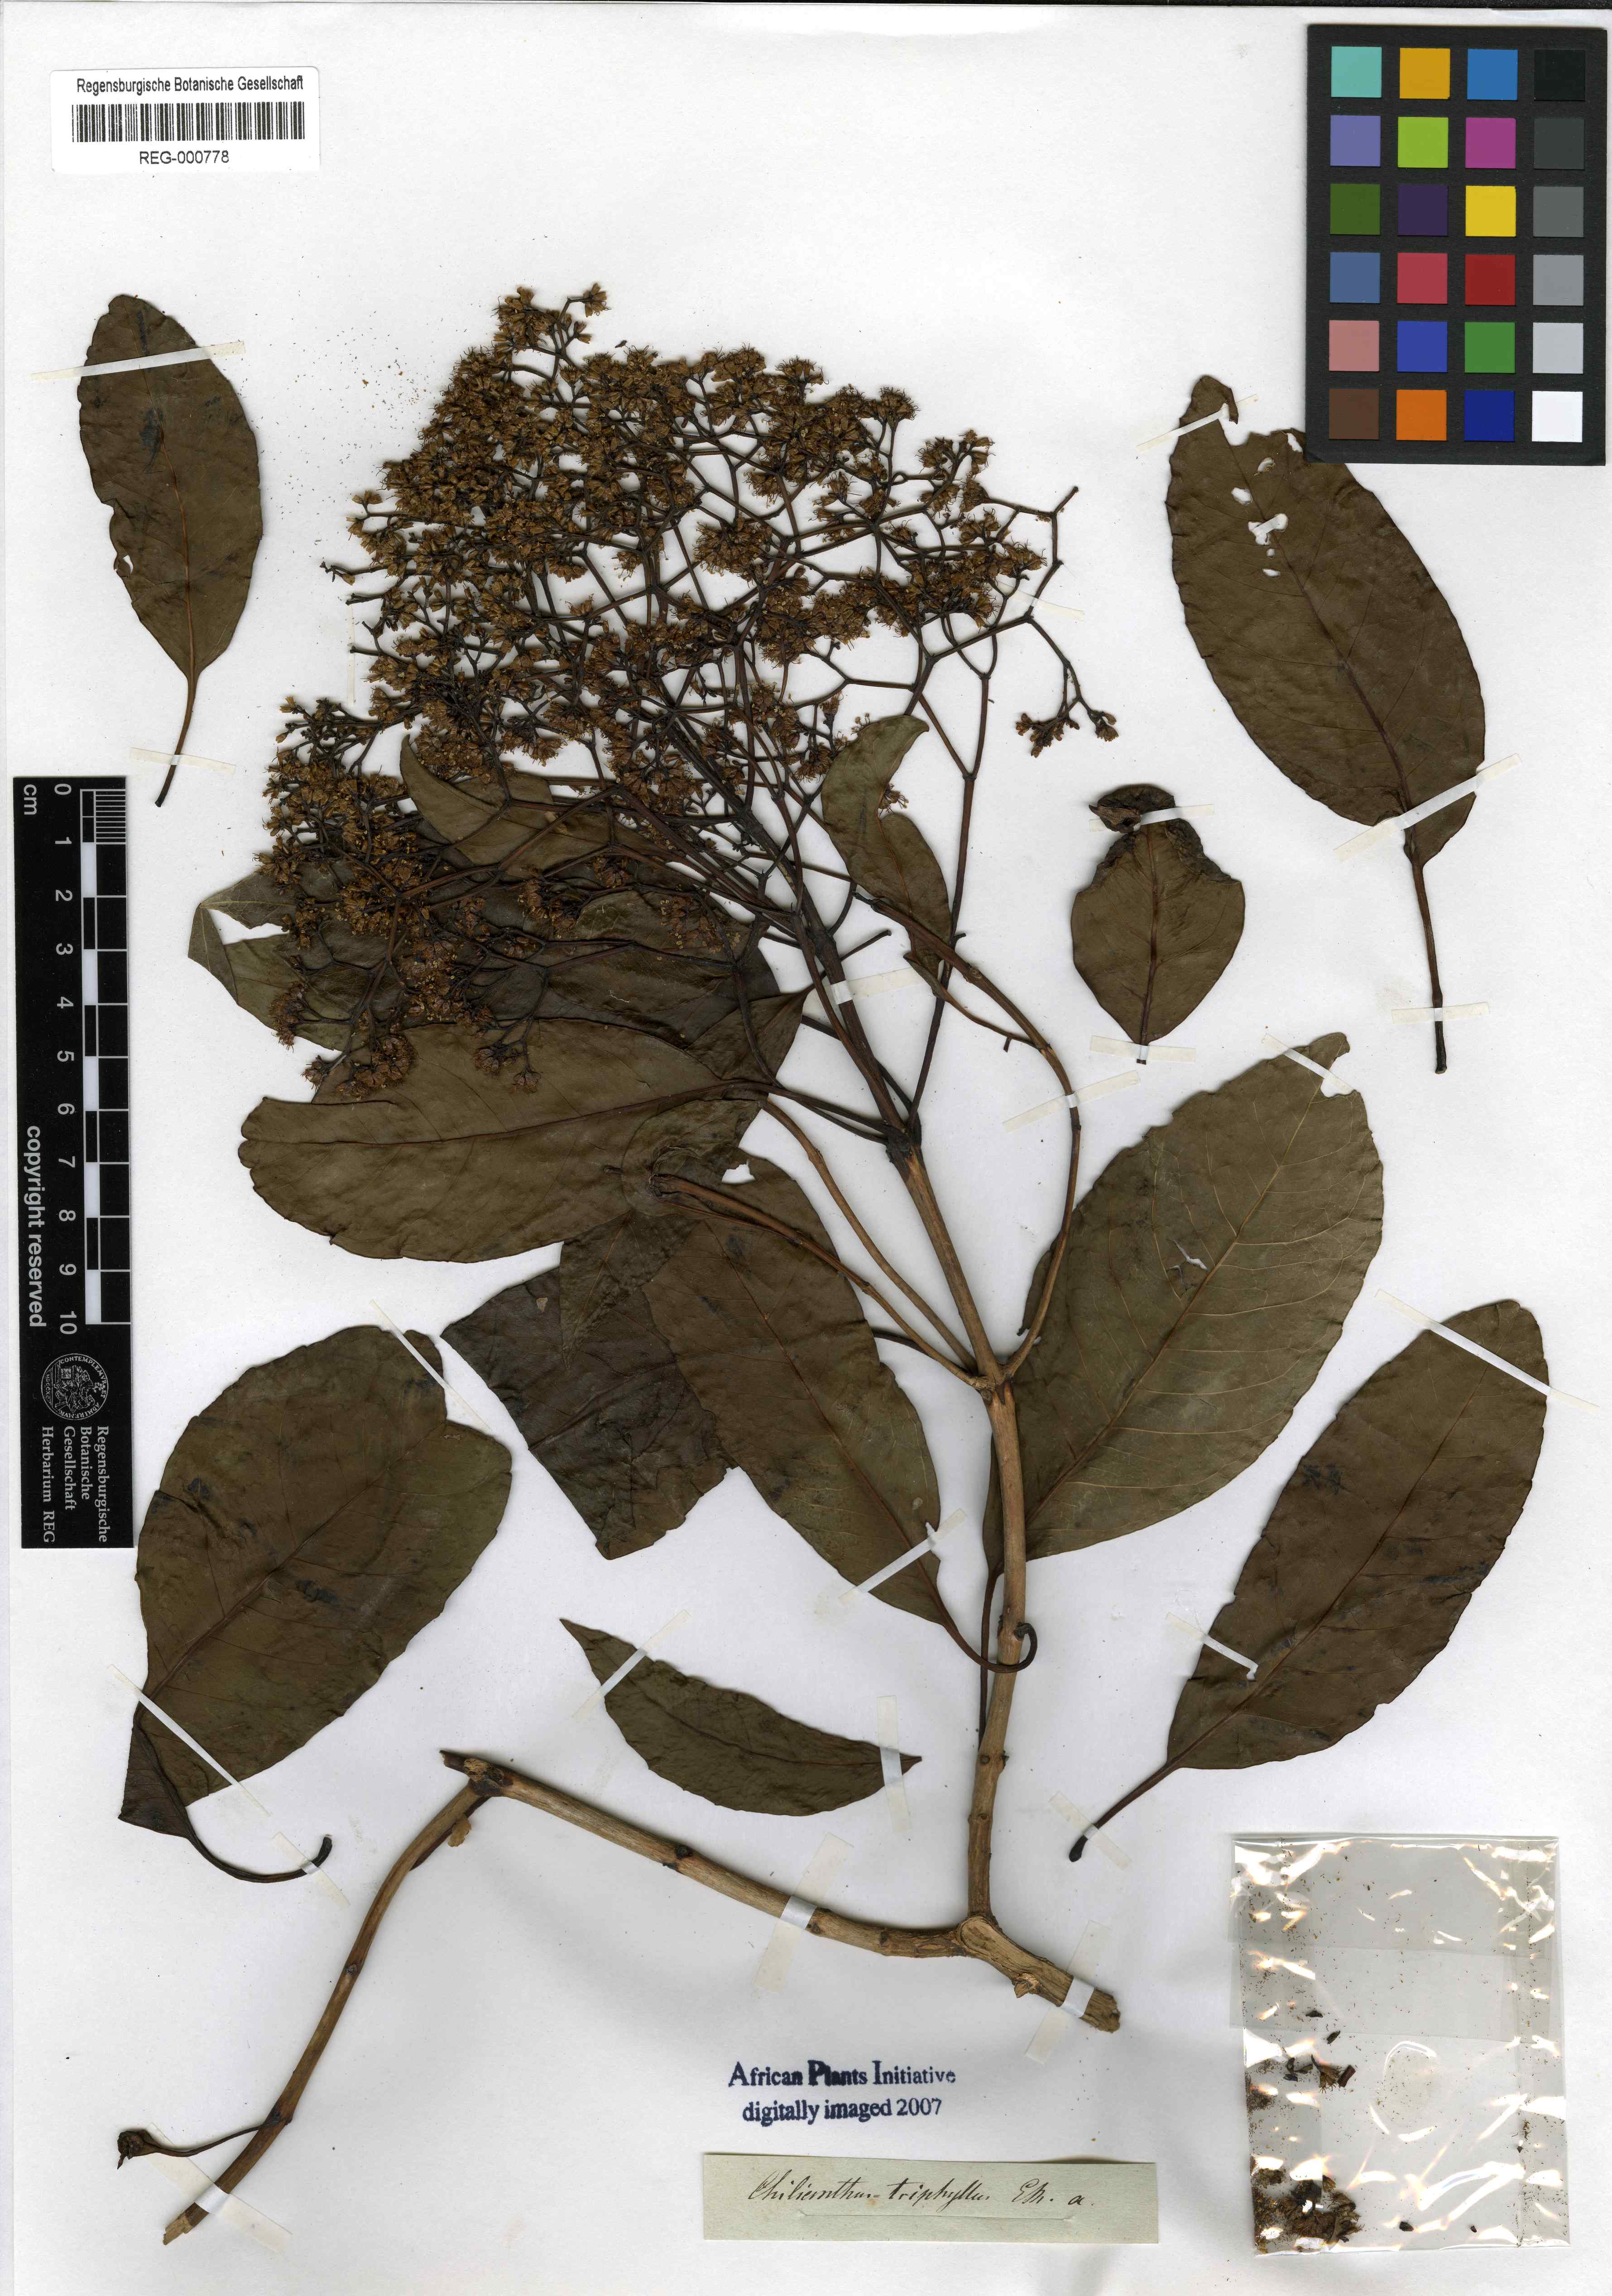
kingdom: Plantae
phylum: Tracheophyta
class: Magnoliopsida
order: Lamiales
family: Stilbaceae
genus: Nuxia
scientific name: Nuxia floribunda
